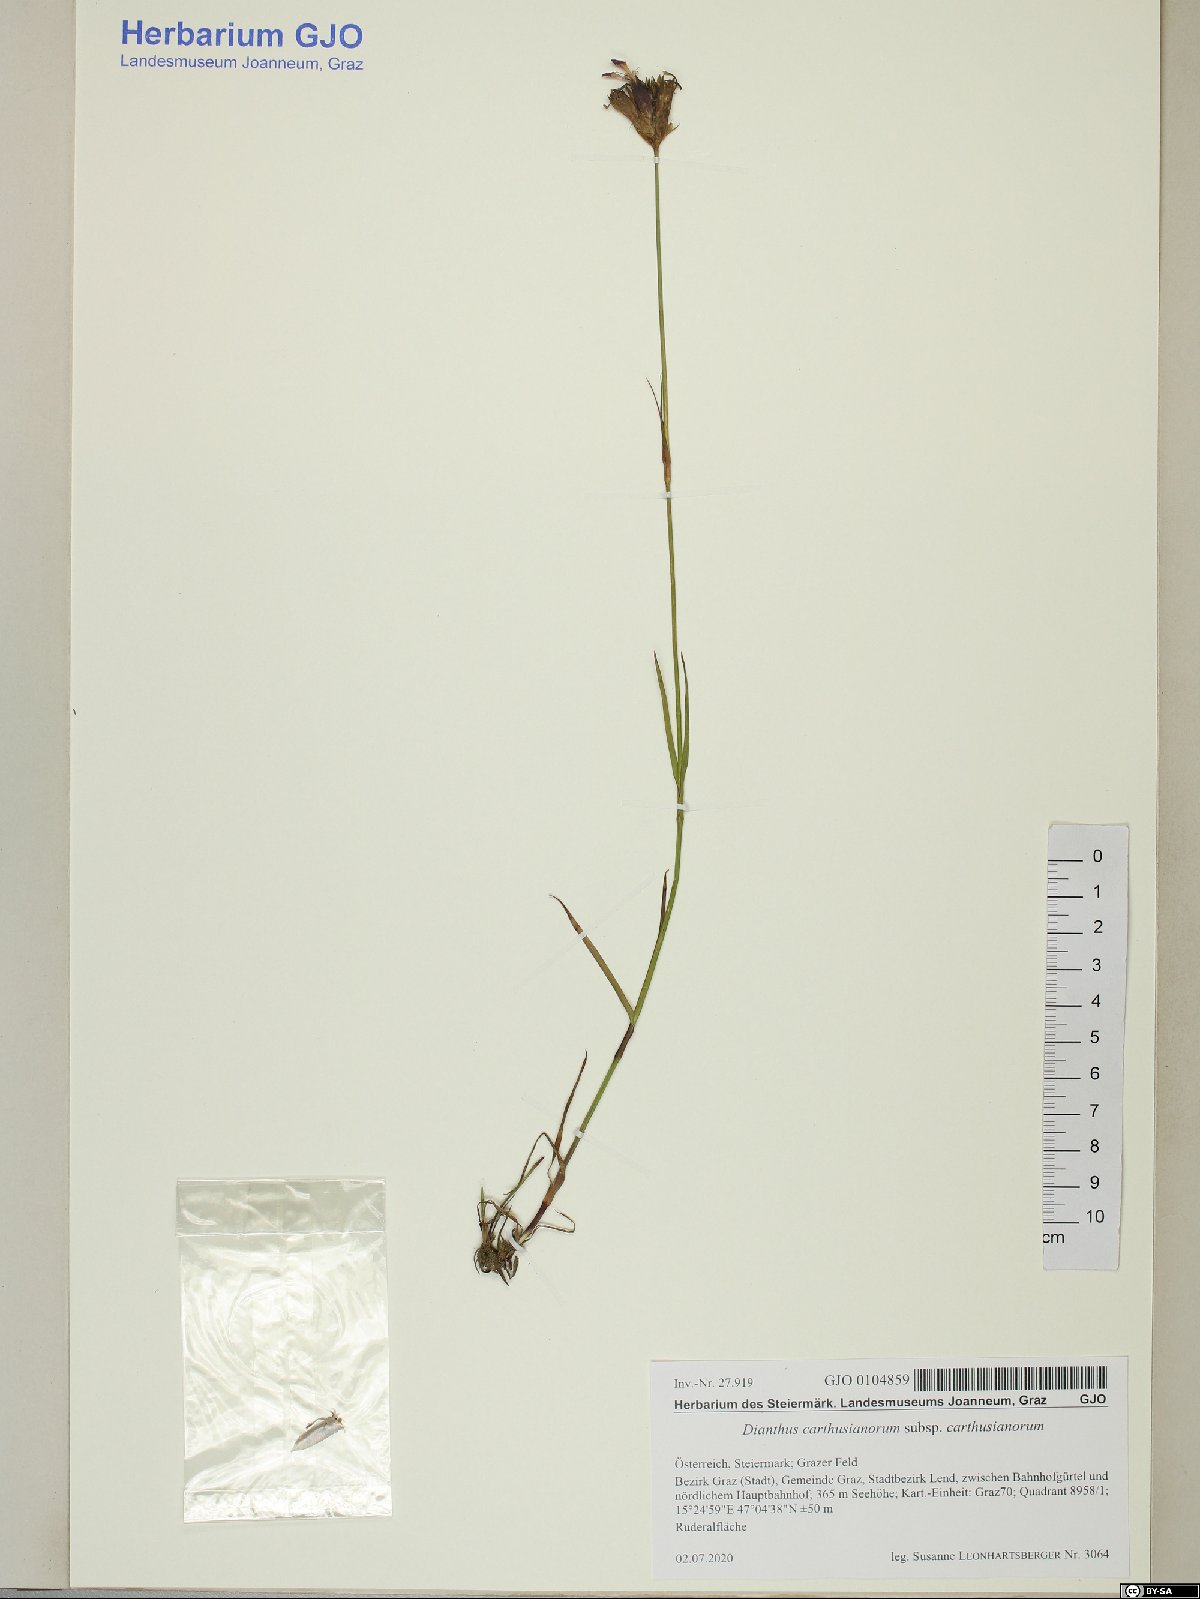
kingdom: Plantae
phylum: Tracheophyta
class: Magnoliopsida
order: Caryophyllales
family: Caryophyllaceae
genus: Dianthus
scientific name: Dianthus carthusianorum
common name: Carthusian pink
